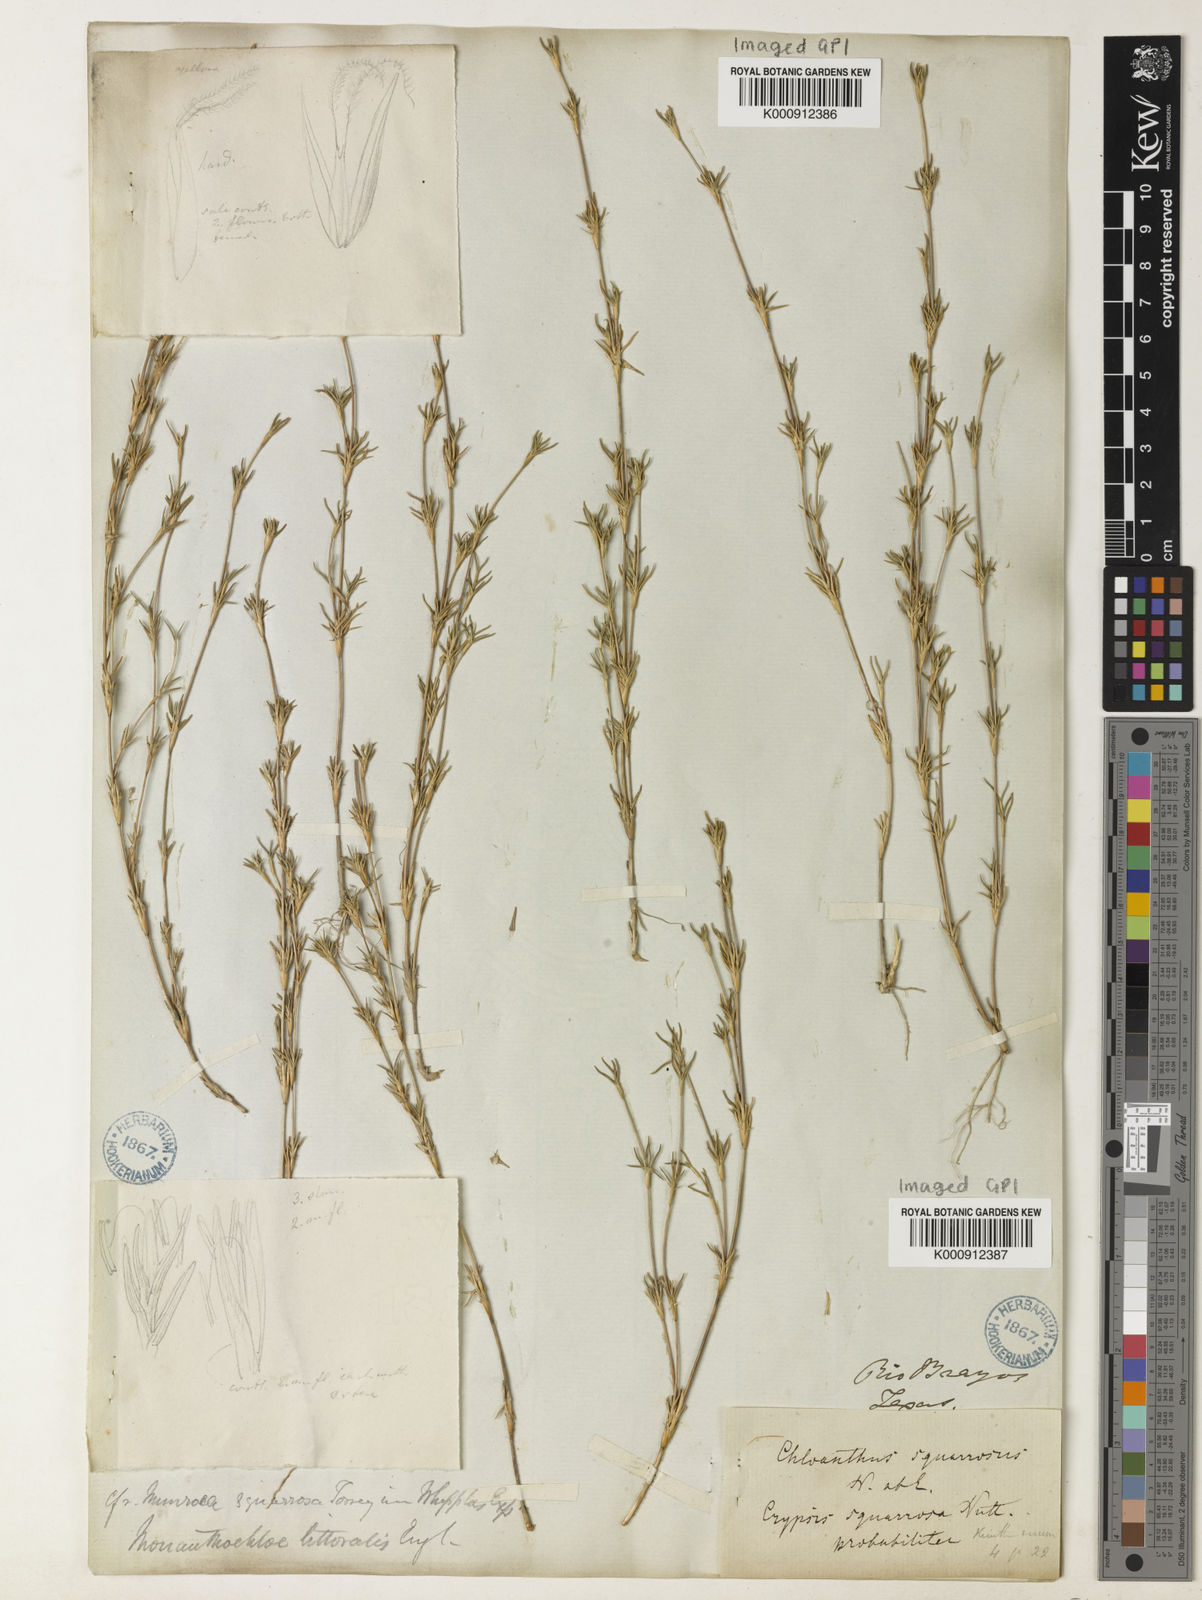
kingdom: Plantae
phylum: Tracheophyta
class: Liliopsida
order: Poales
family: Poaceae
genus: Distichlis
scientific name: Distichlis littoralis
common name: Shore grass
